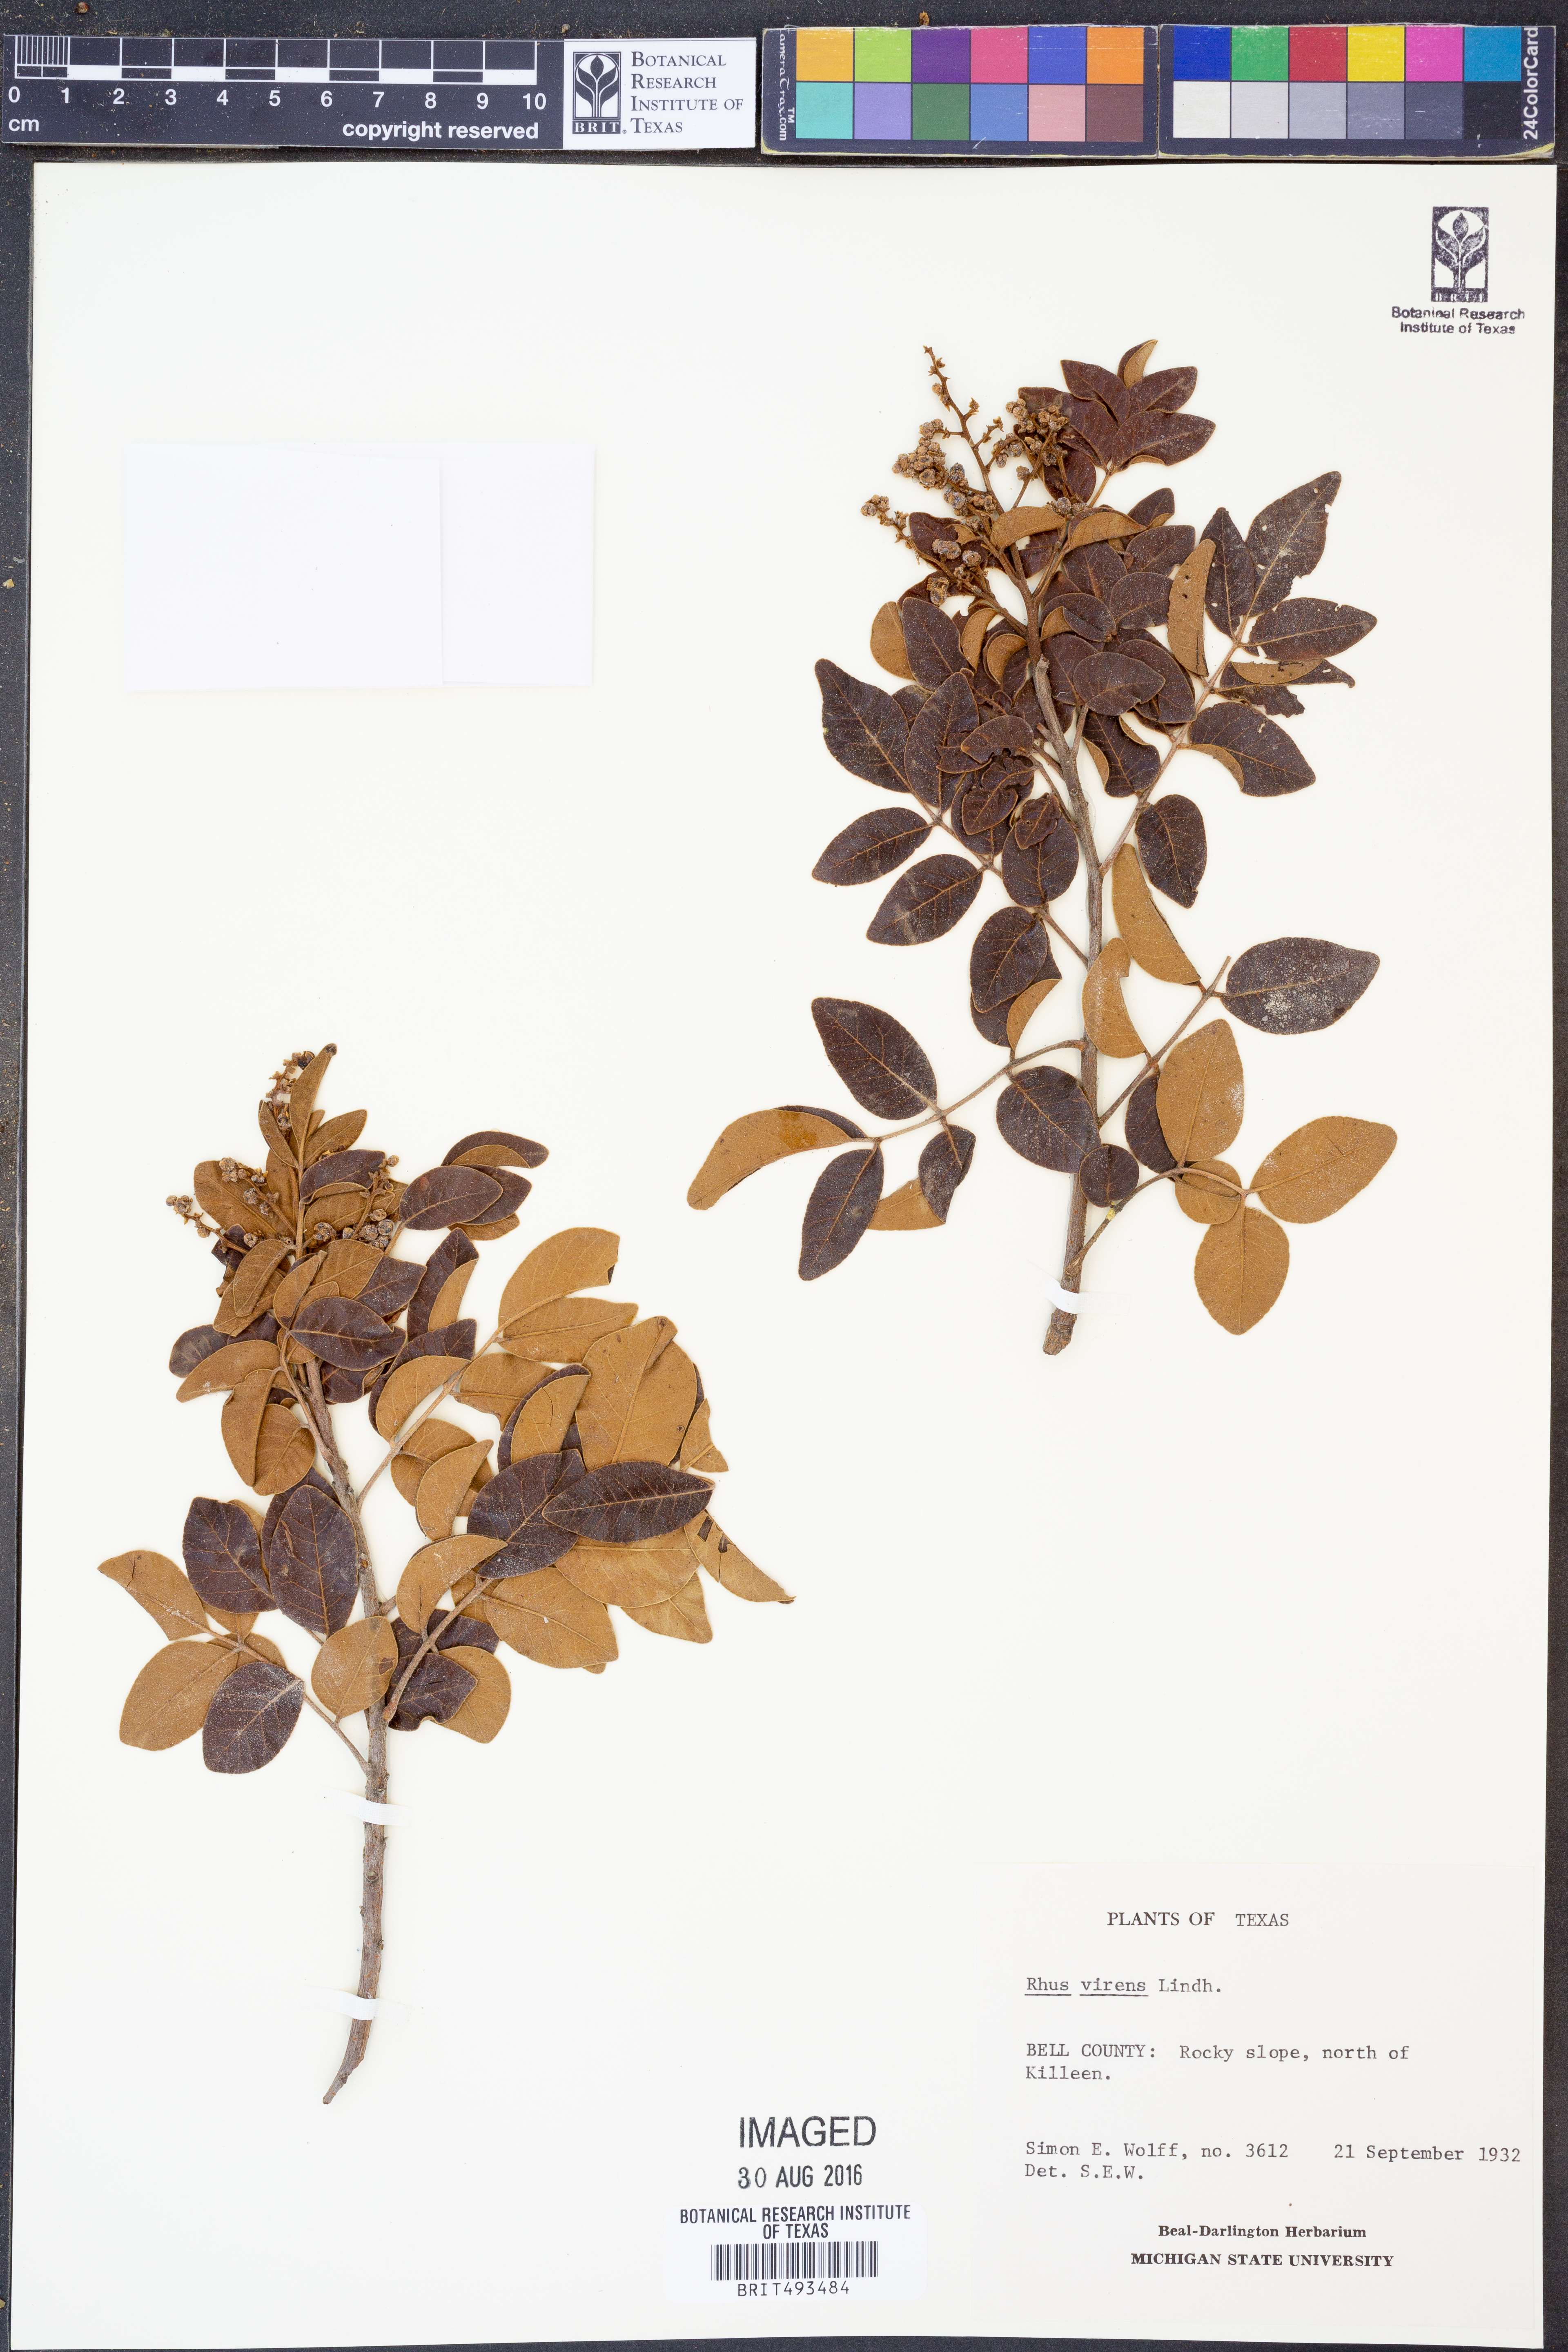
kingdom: Plantae
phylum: Tracheophyta
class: Magnoliopsida
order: Sapindales
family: Anacardiaceae
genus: Rhus
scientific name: Rhus virens
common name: Evergreen sumac
